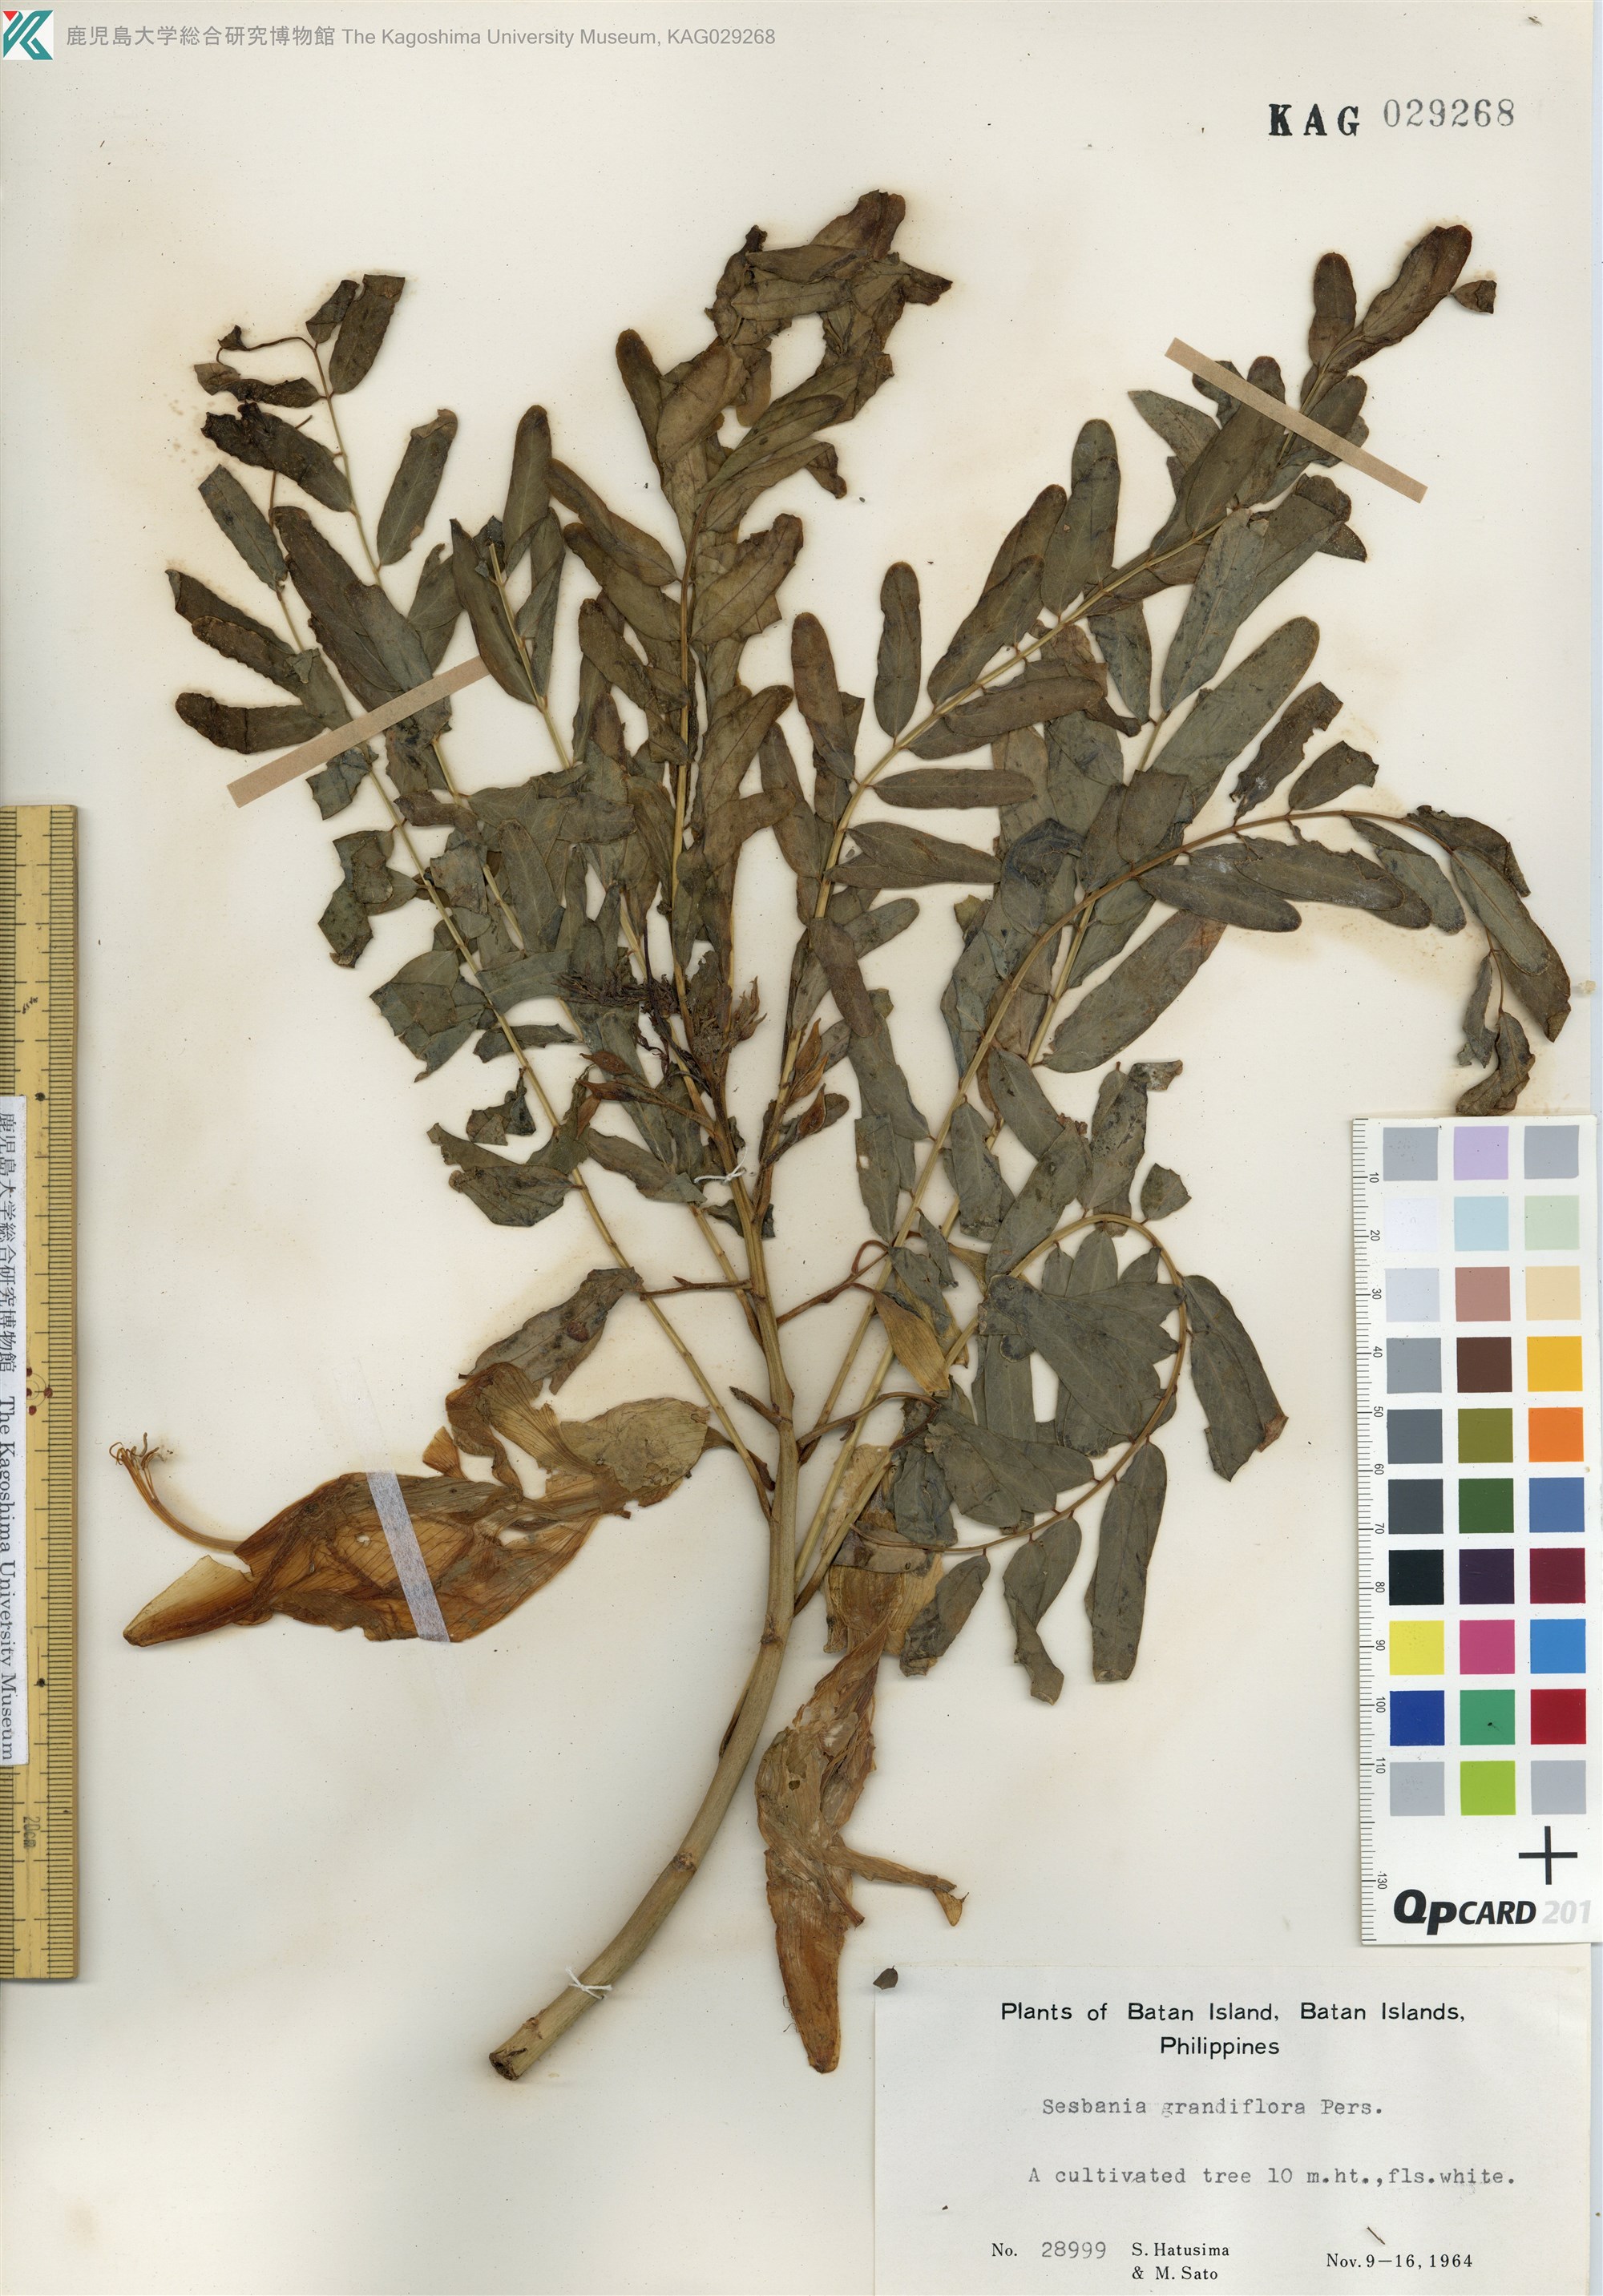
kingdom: Plantae
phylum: Tracheophyta
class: Magnoliopsida
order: Fabales
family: Fabaceae
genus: Sesbania
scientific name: Sesbania grandiflora
